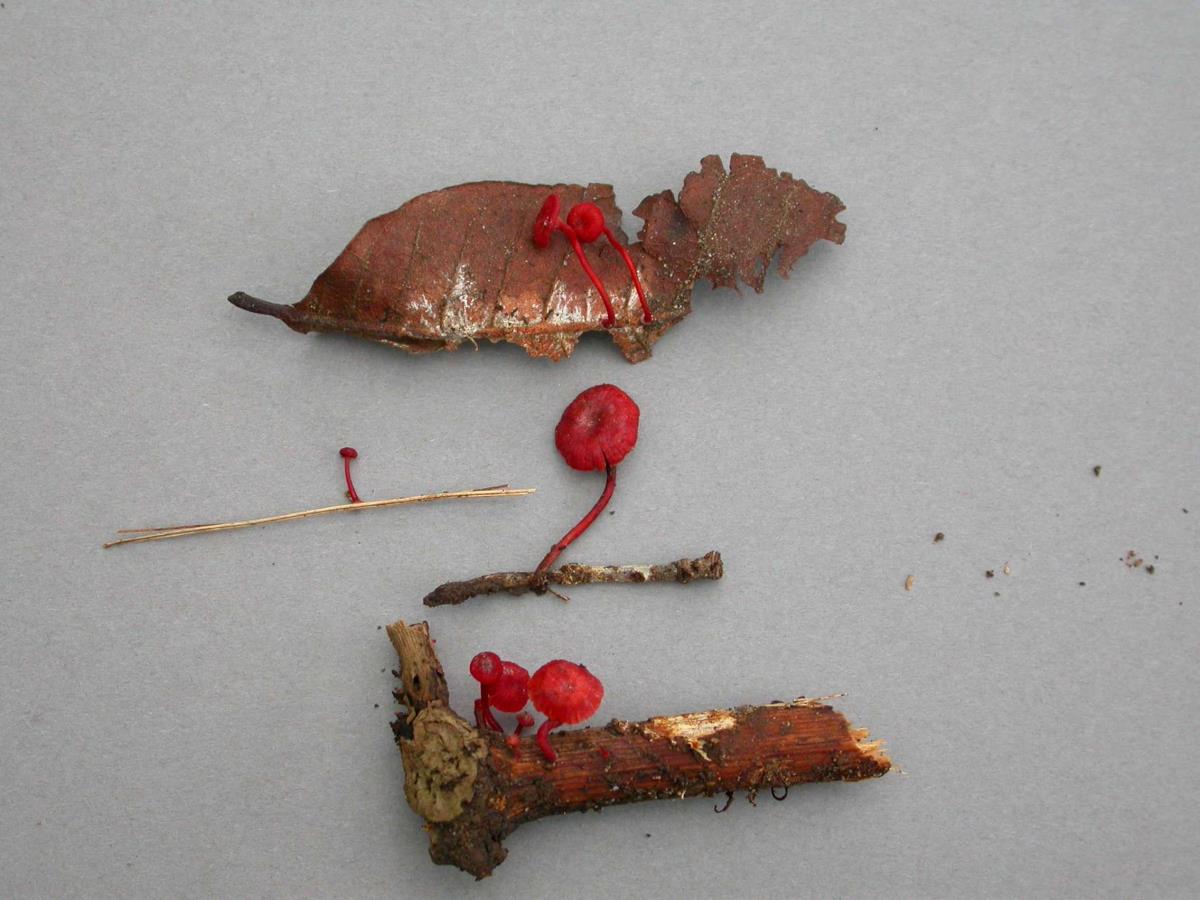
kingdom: Fungi
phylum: Basidiomycota
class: Agaricomycetes
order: Agaricales
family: Mycenaceae
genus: Cruentomycena
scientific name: Cruentomycena viscidocruenta
